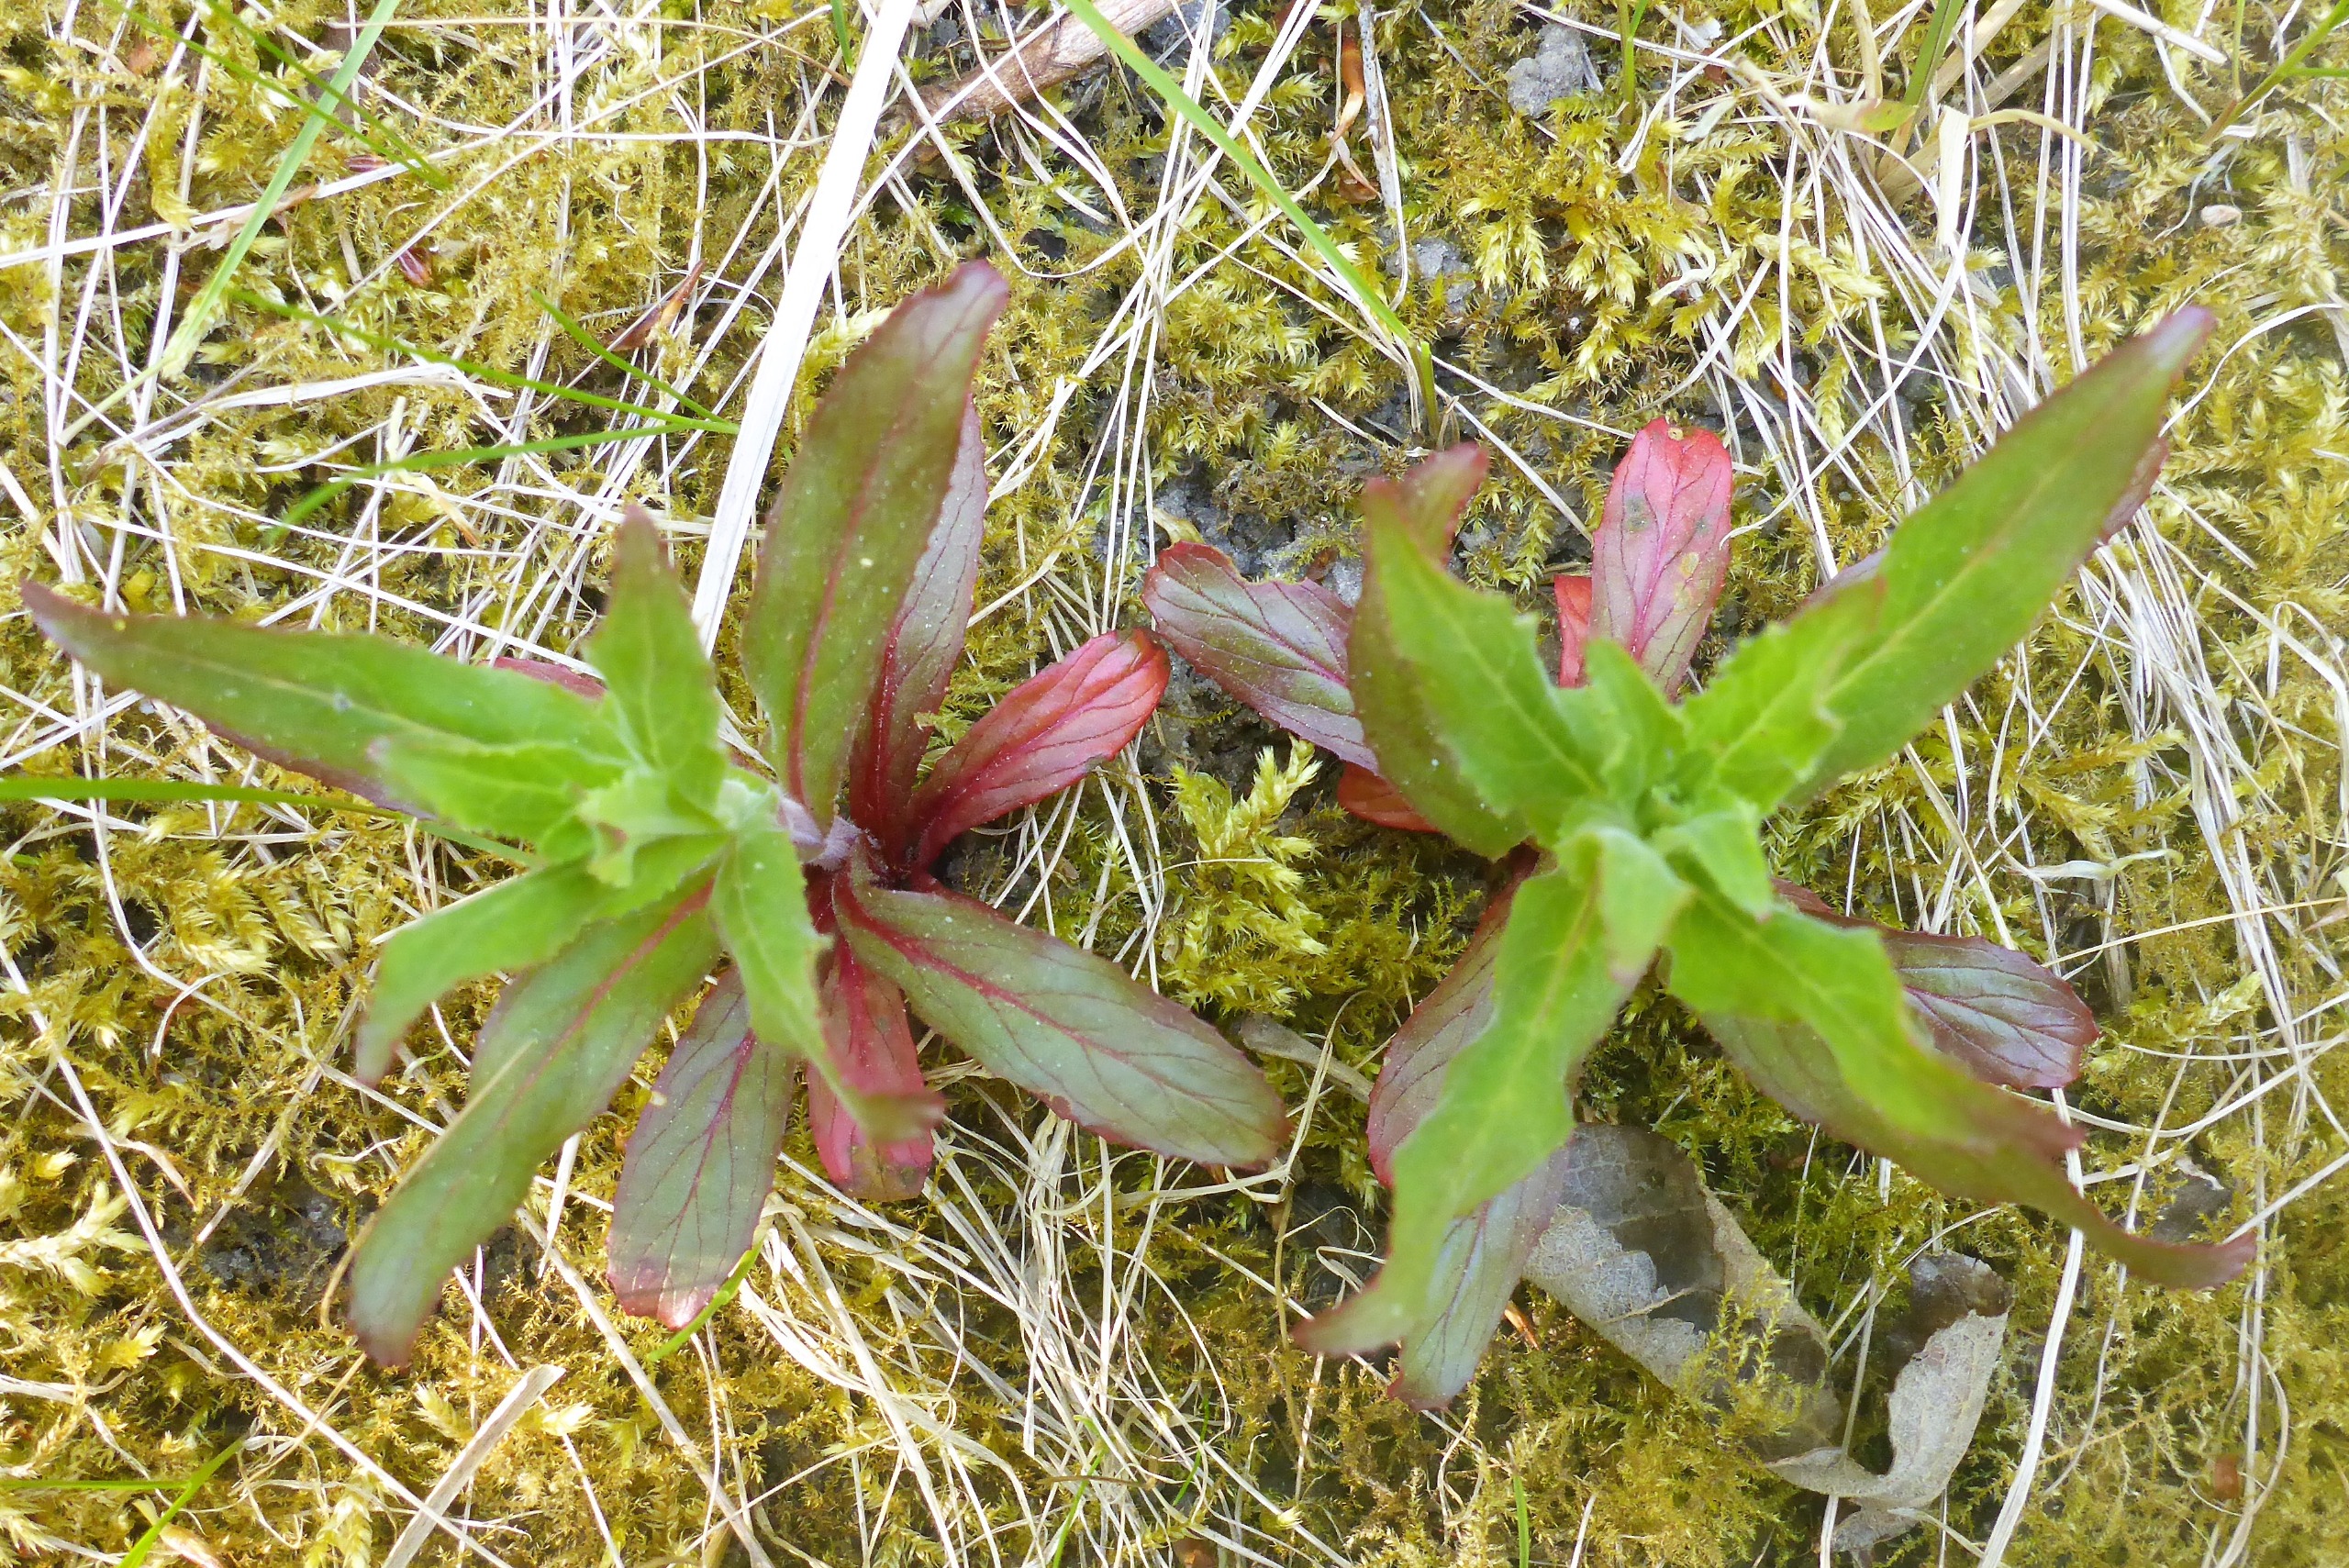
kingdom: Plantae
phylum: Tracheophyta
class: Magnoliopsida
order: Myrtales
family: Onagraceae
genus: Epilobium
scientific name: Epilobium hirsutum
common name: Lådden dueurt
